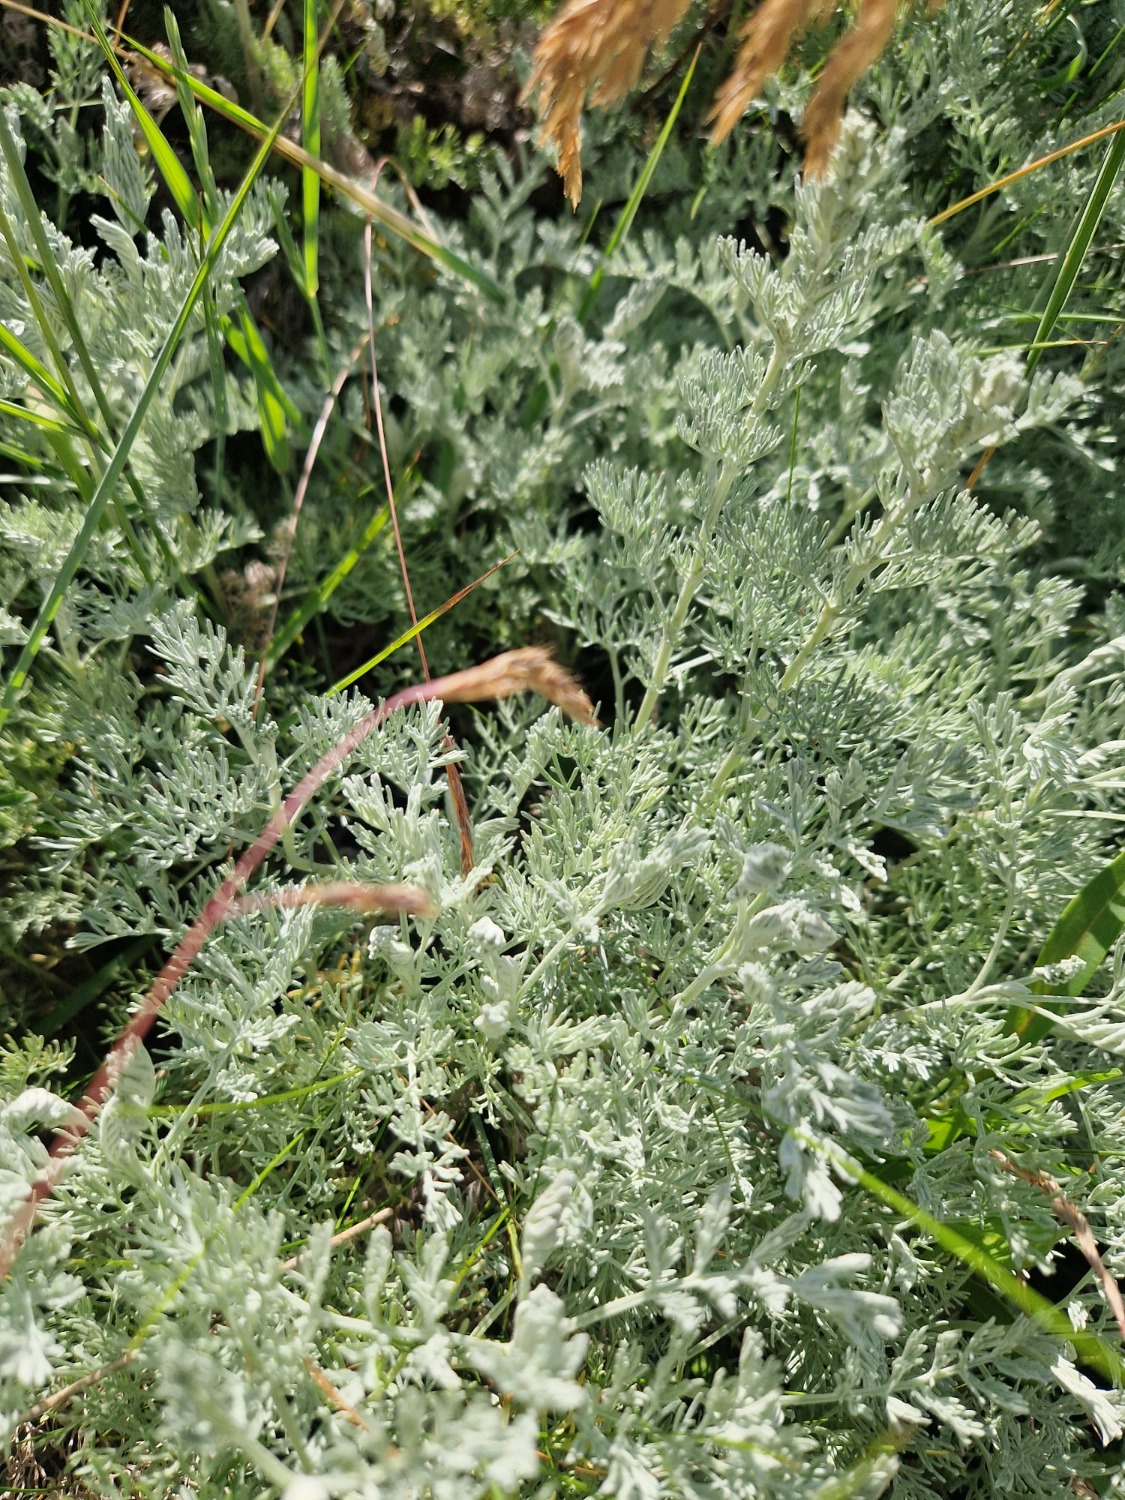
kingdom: Plantae
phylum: Tracheophyta
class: Magnoliopsida
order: Asterales
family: Asteraceae
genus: Artemisia
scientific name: Artemisia maritima
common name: Strandmalurt
